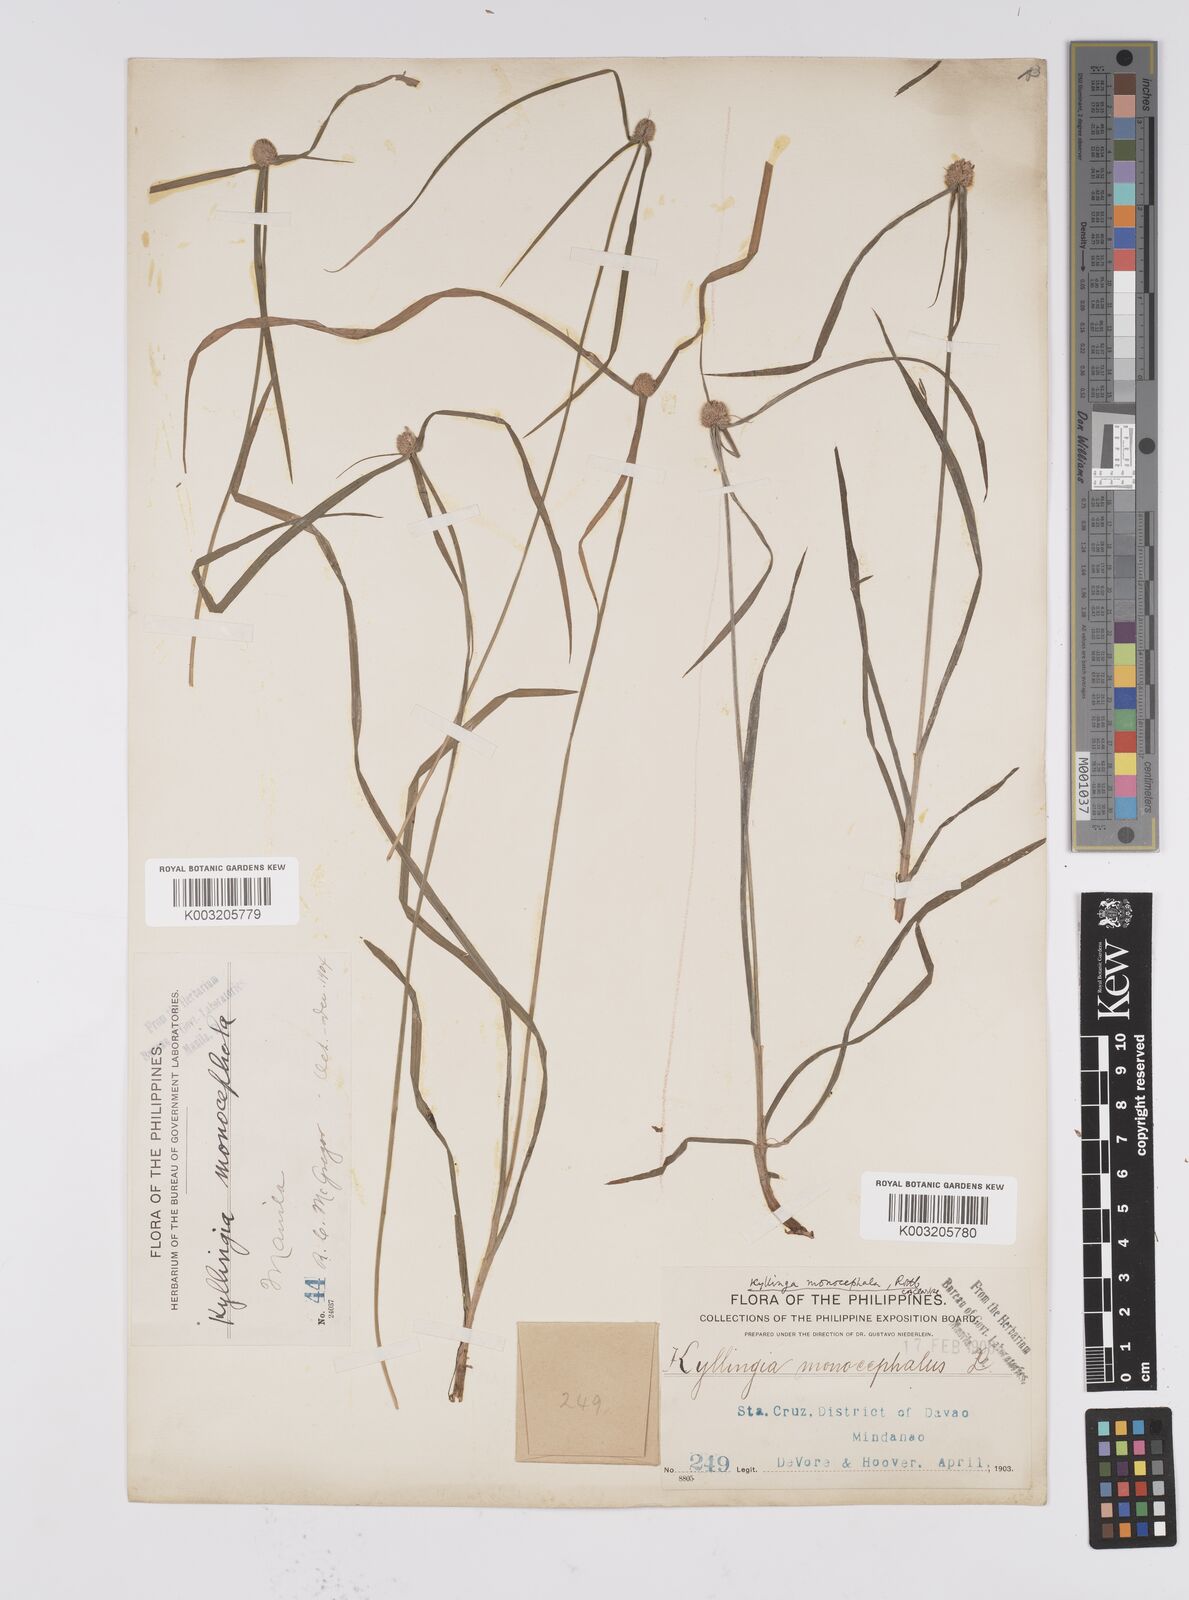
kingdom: Plantae
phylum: Tracheophyta
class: Liliopsida
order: Poales
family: Cyperaceae
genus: Cyperus
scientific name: Cyperus nemoralis
